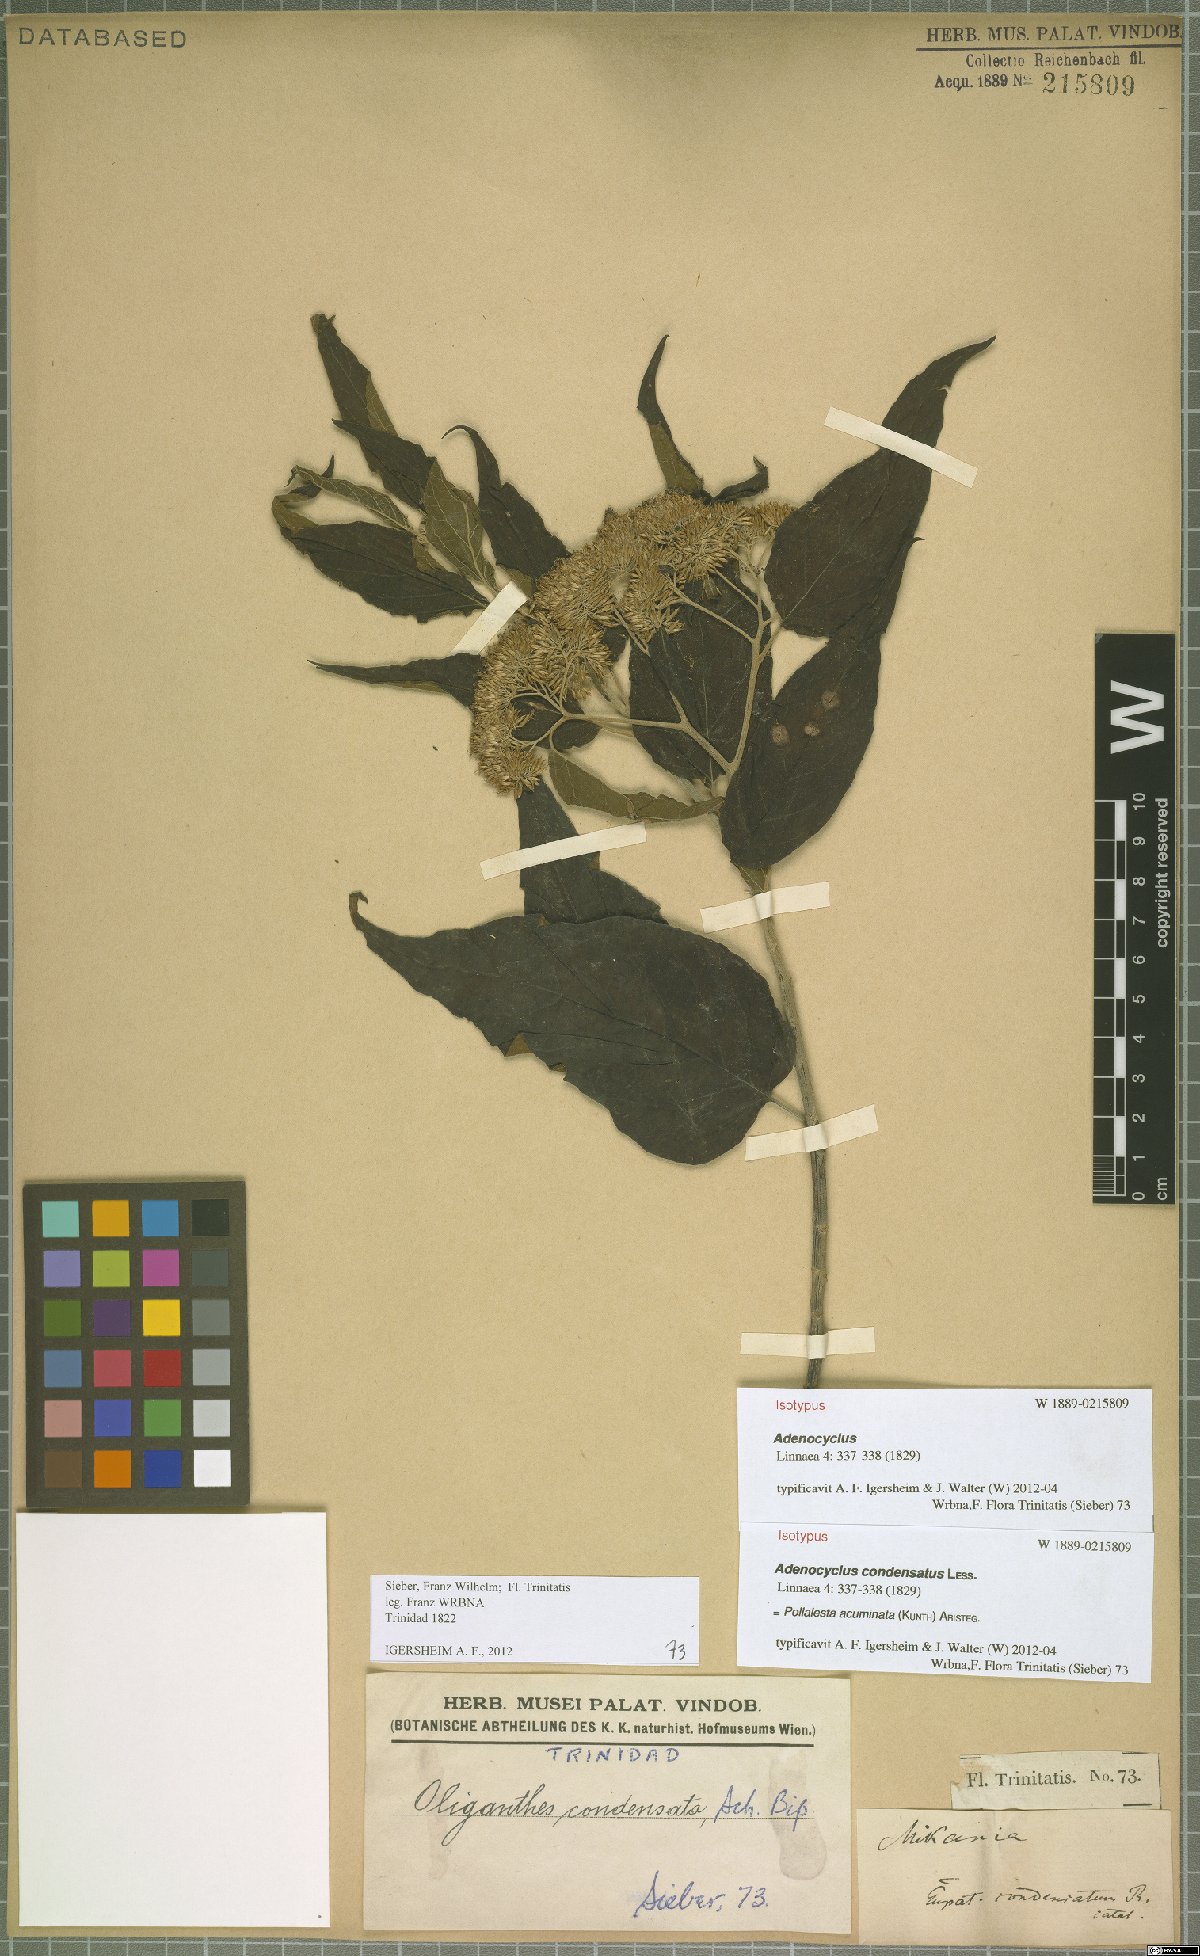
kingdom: Plantae
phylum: Tracheophyta
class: Magnoliopsida
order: Asterales
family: Asteraceae
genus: Piptocoma
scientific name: Piptocoma acuminata
